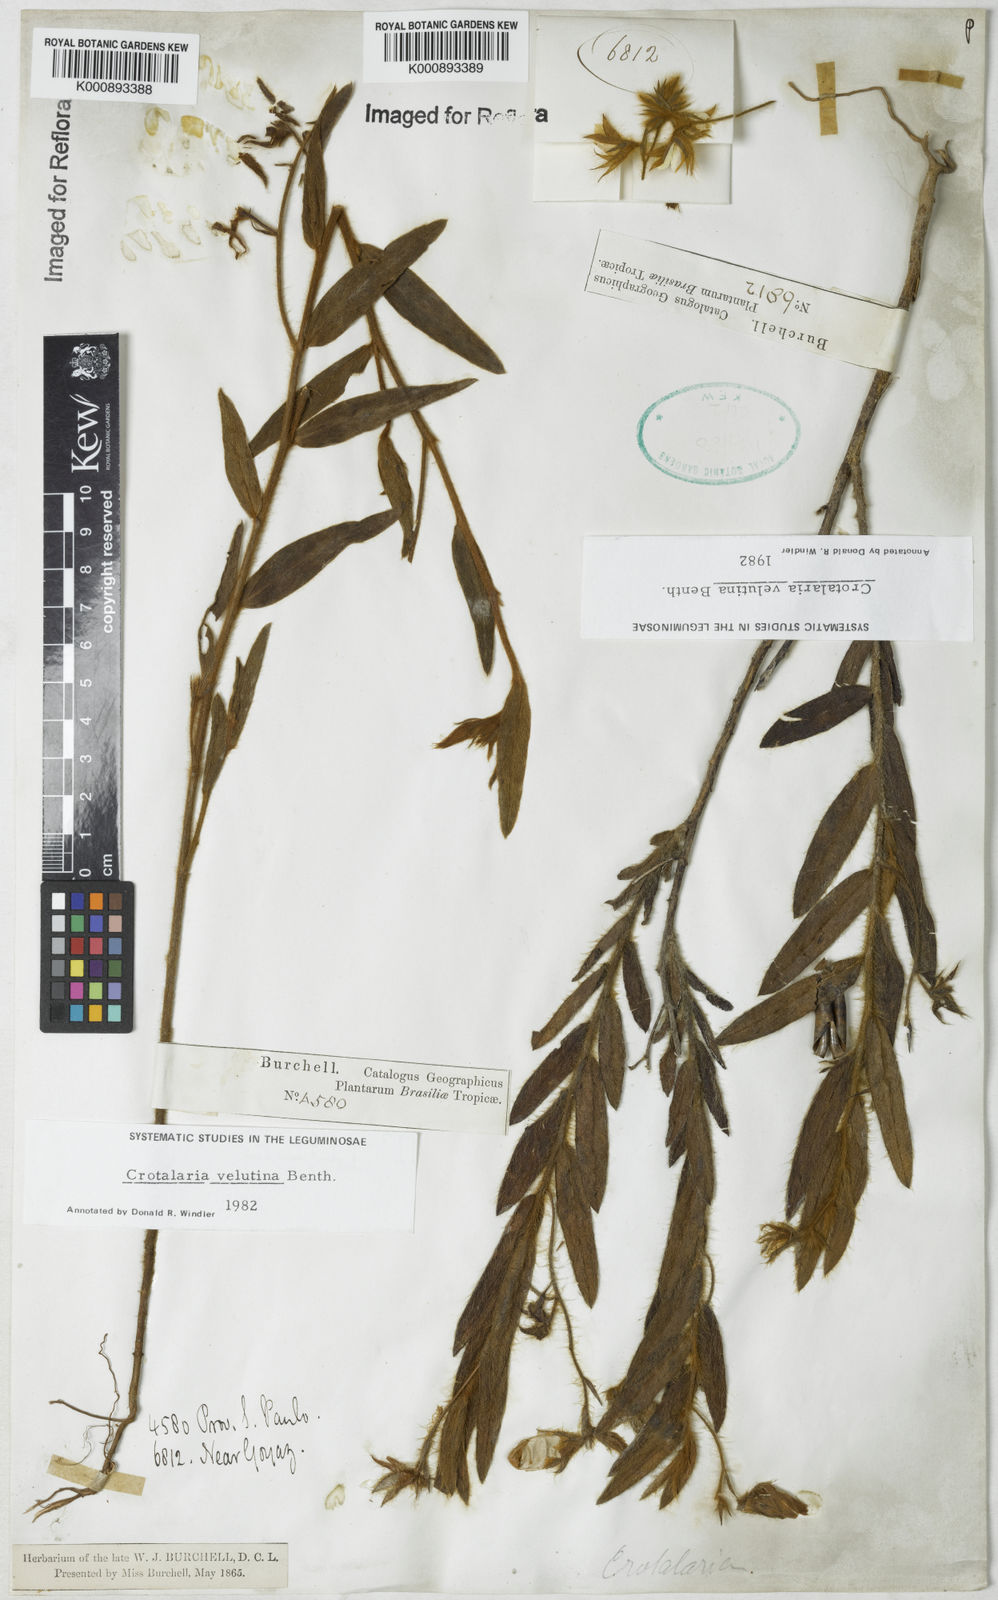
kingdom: Plantae
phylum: Tracheophyta
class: Magnoliopsida
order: Fabales
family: Fabaceae
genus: Crotalaria
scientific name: Crotalaria velutina
